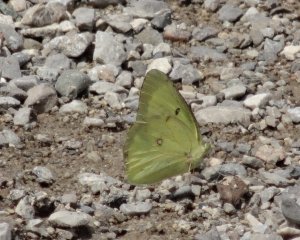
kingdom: Animalia
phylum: Arthropoda
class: Insecta
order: Lepidoptera
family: Pieridae
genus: Colias
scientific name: Colias philodice
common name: Clouded Sulphur
